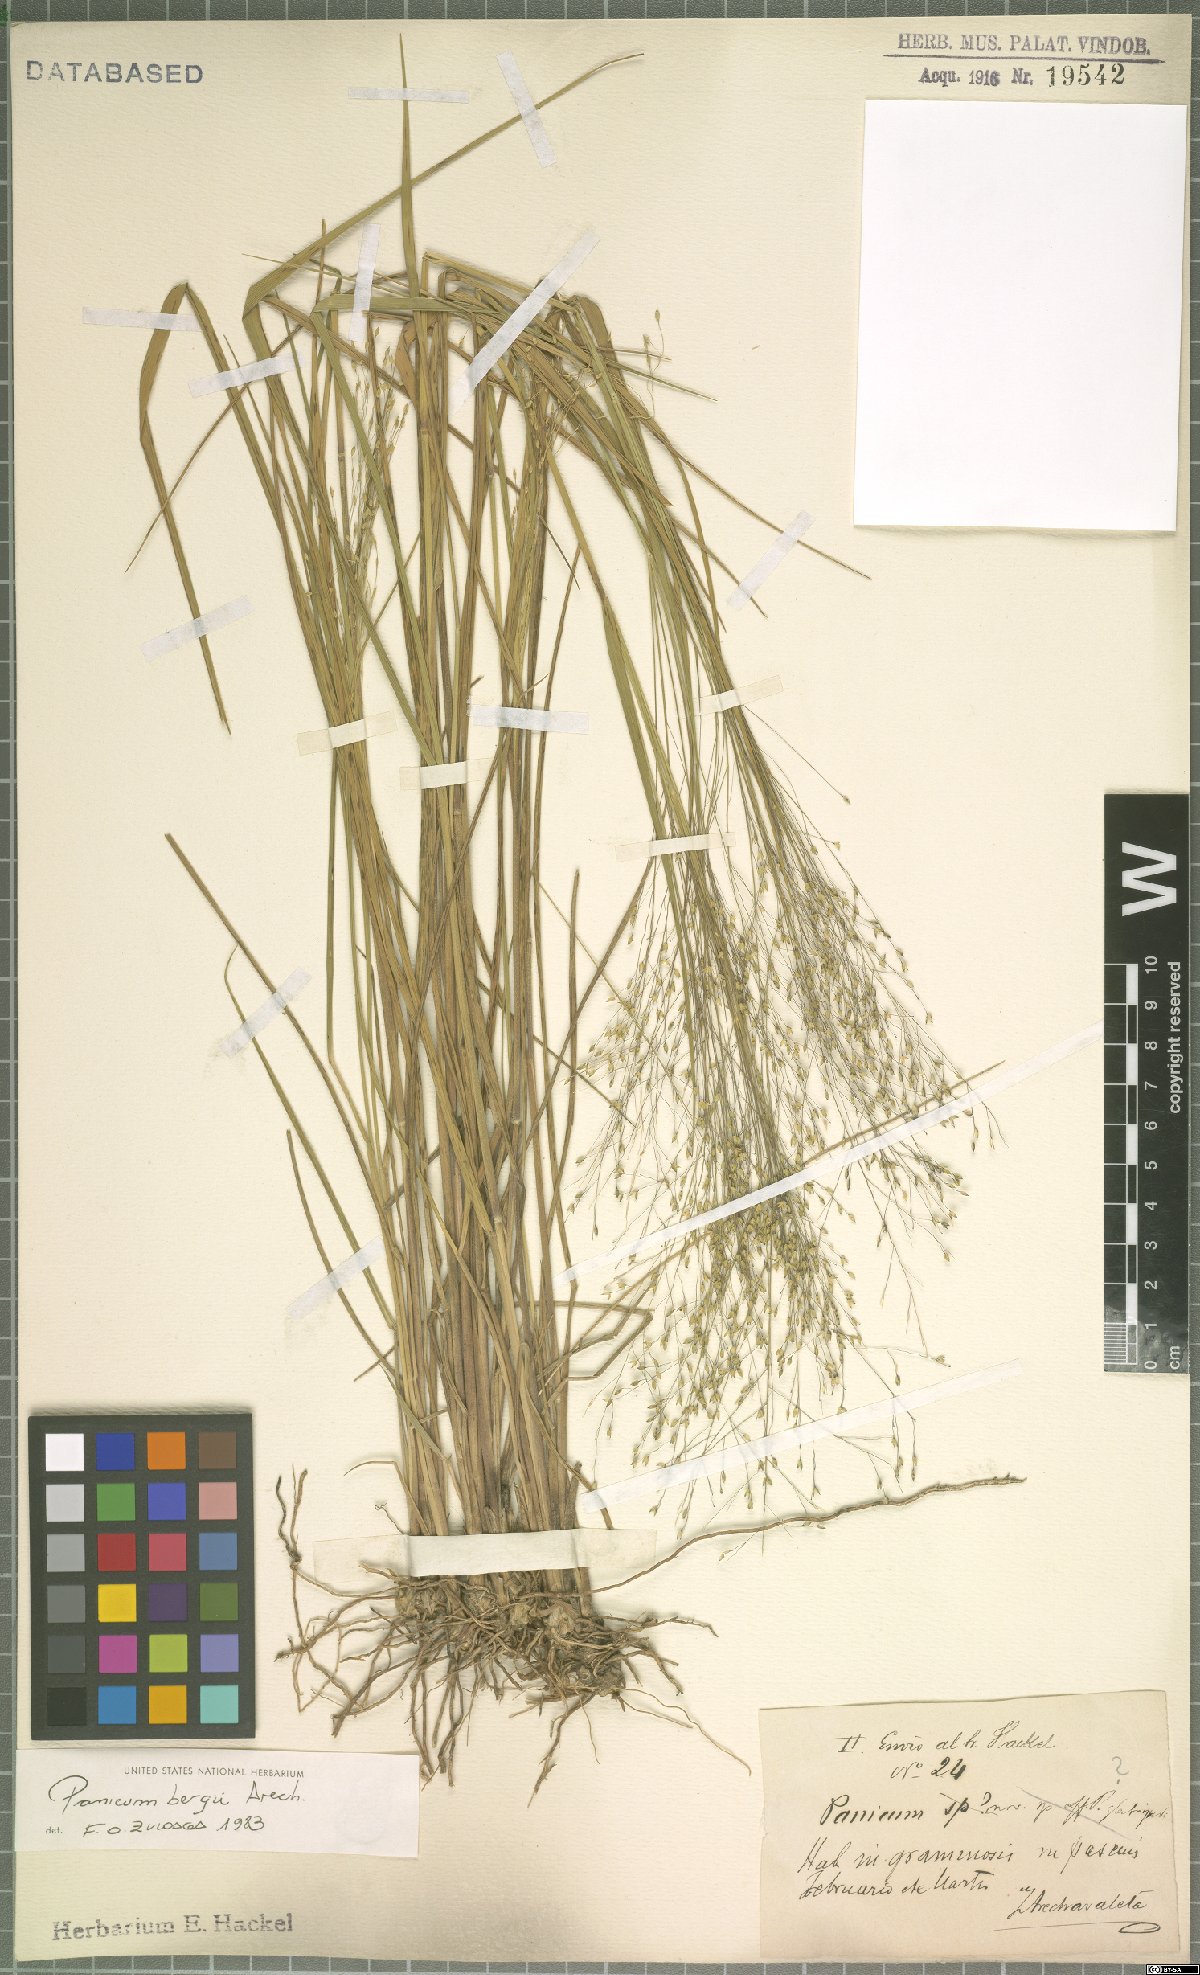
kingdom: Plantae
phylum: Tracheophyta
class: Liliopsida
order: Poales
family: Poaceae
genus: Panicum
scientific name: Panicum bergii
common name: Berg's panicgrass
